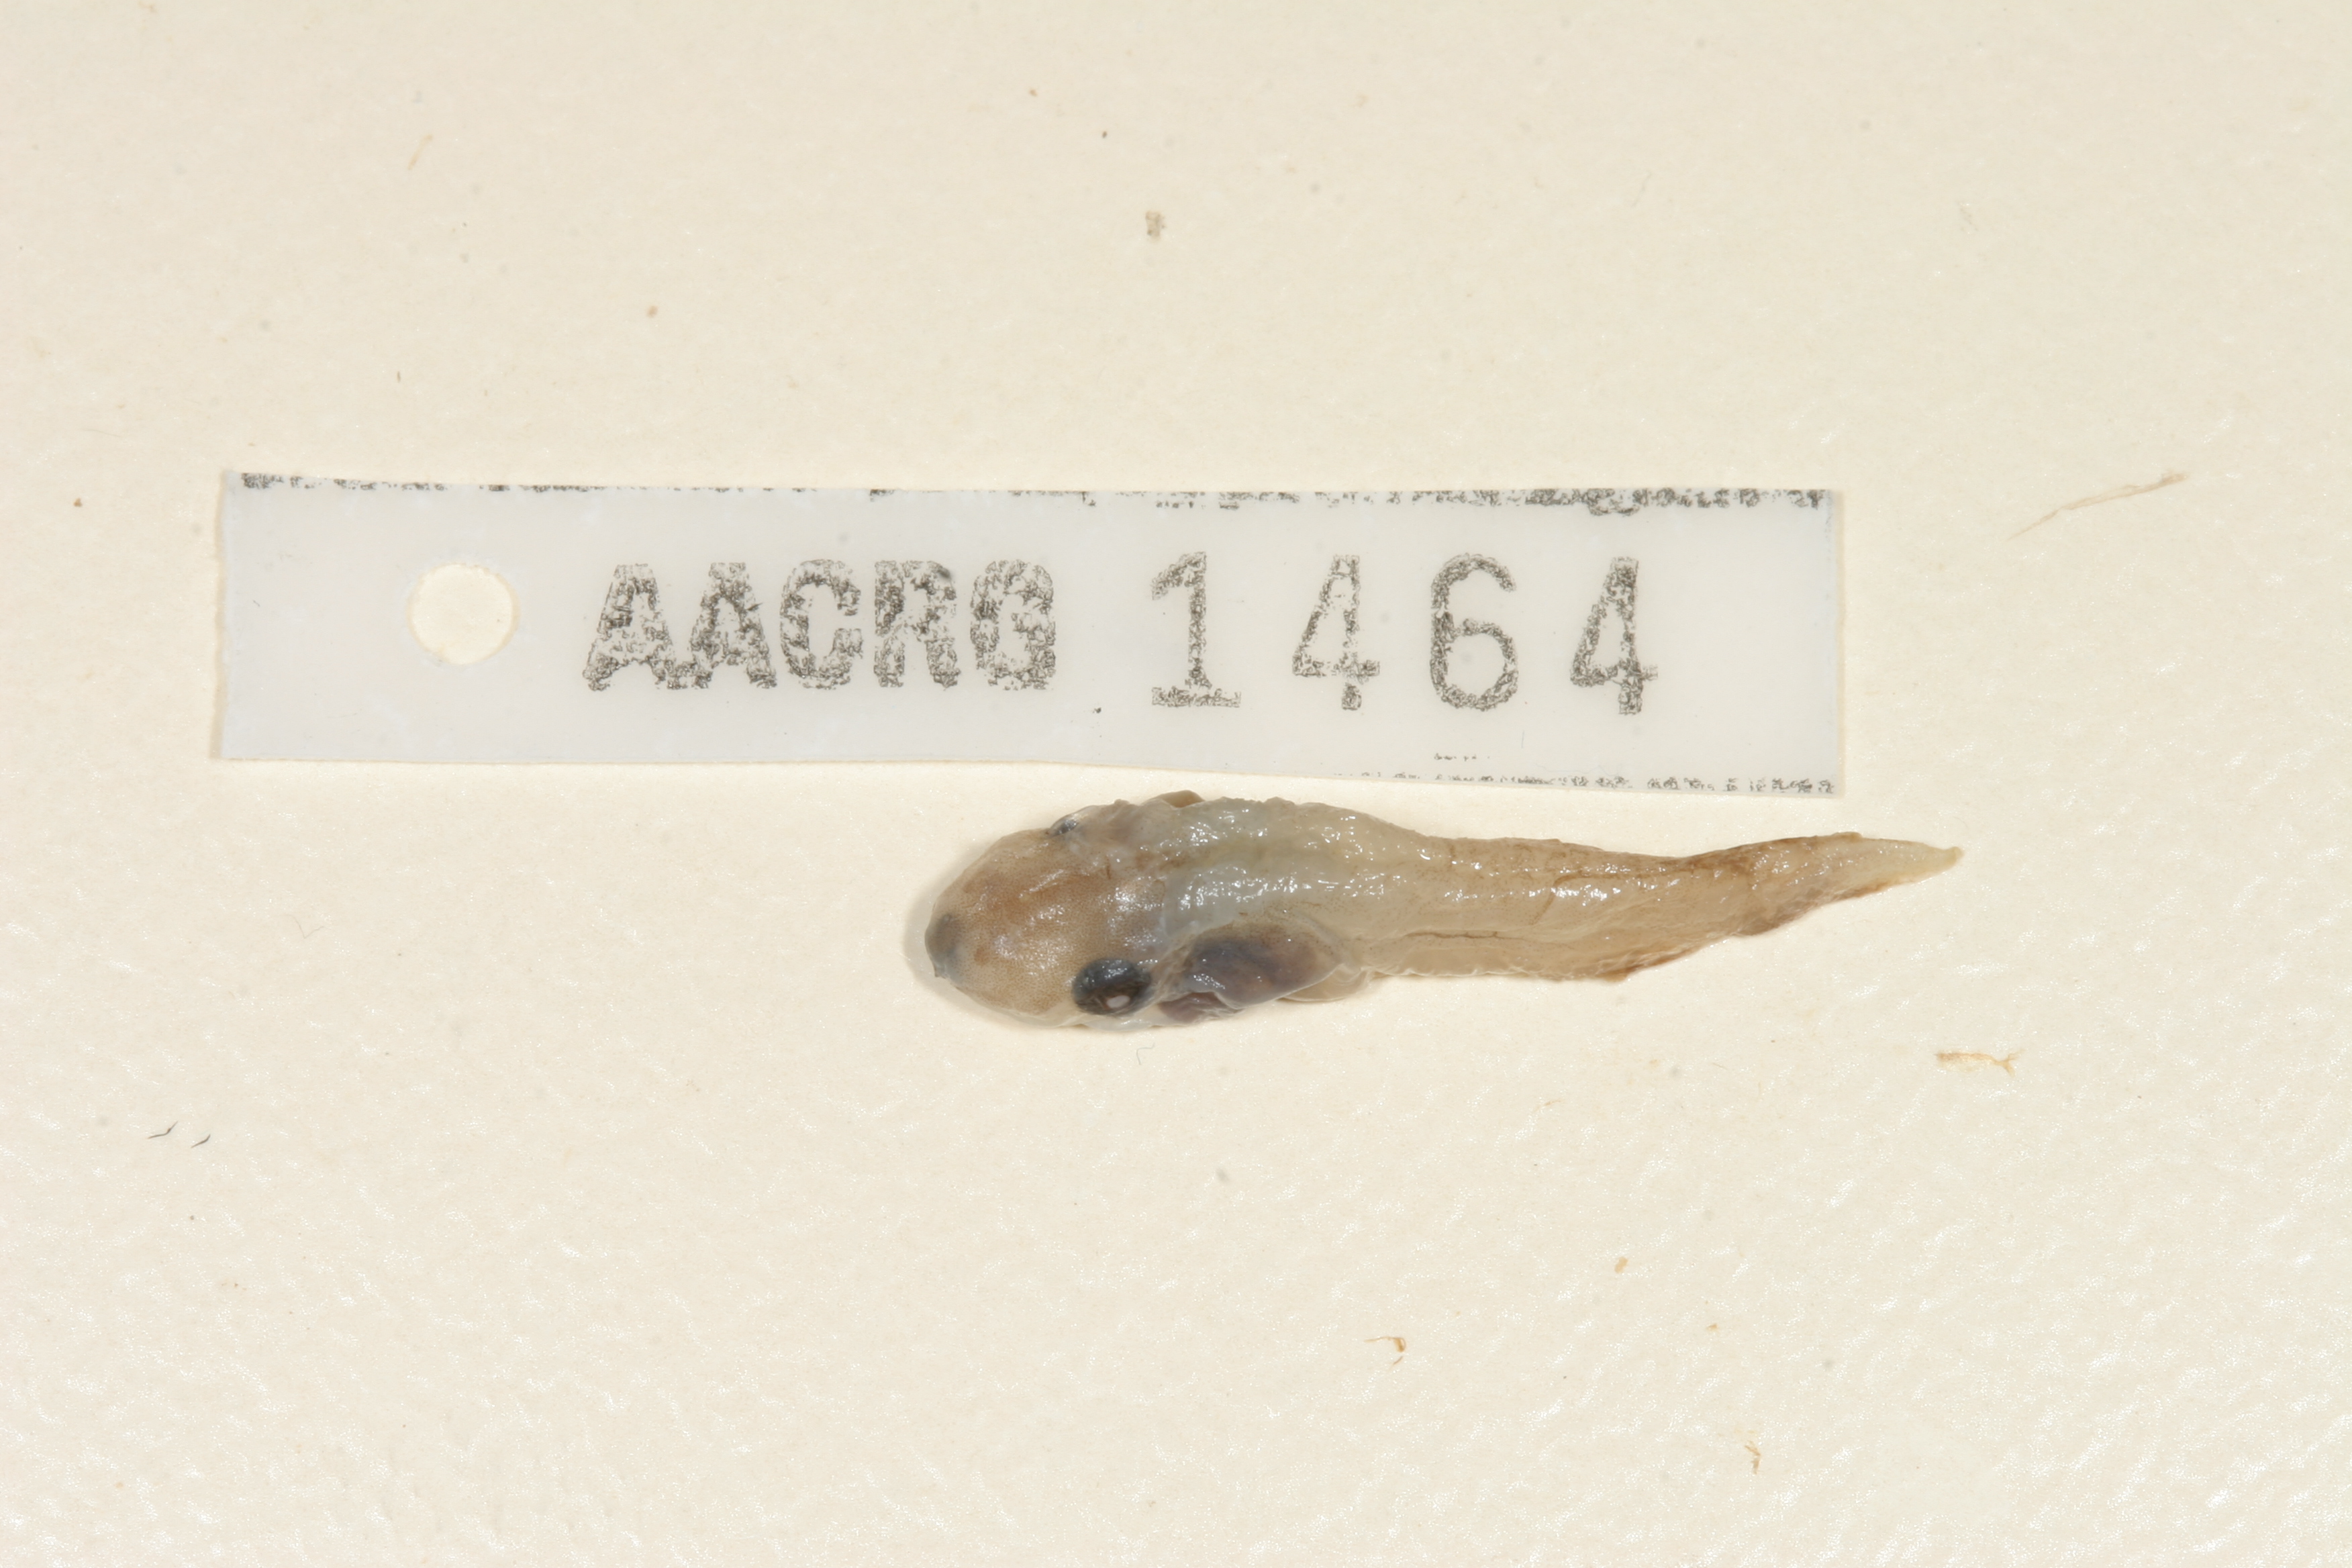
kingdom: Animalia
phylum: Chordata
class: Amphibia
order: Anura
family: Hyperoliidae
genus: Kassina
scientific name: Kassina senegalensis
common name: Senegal land frog
